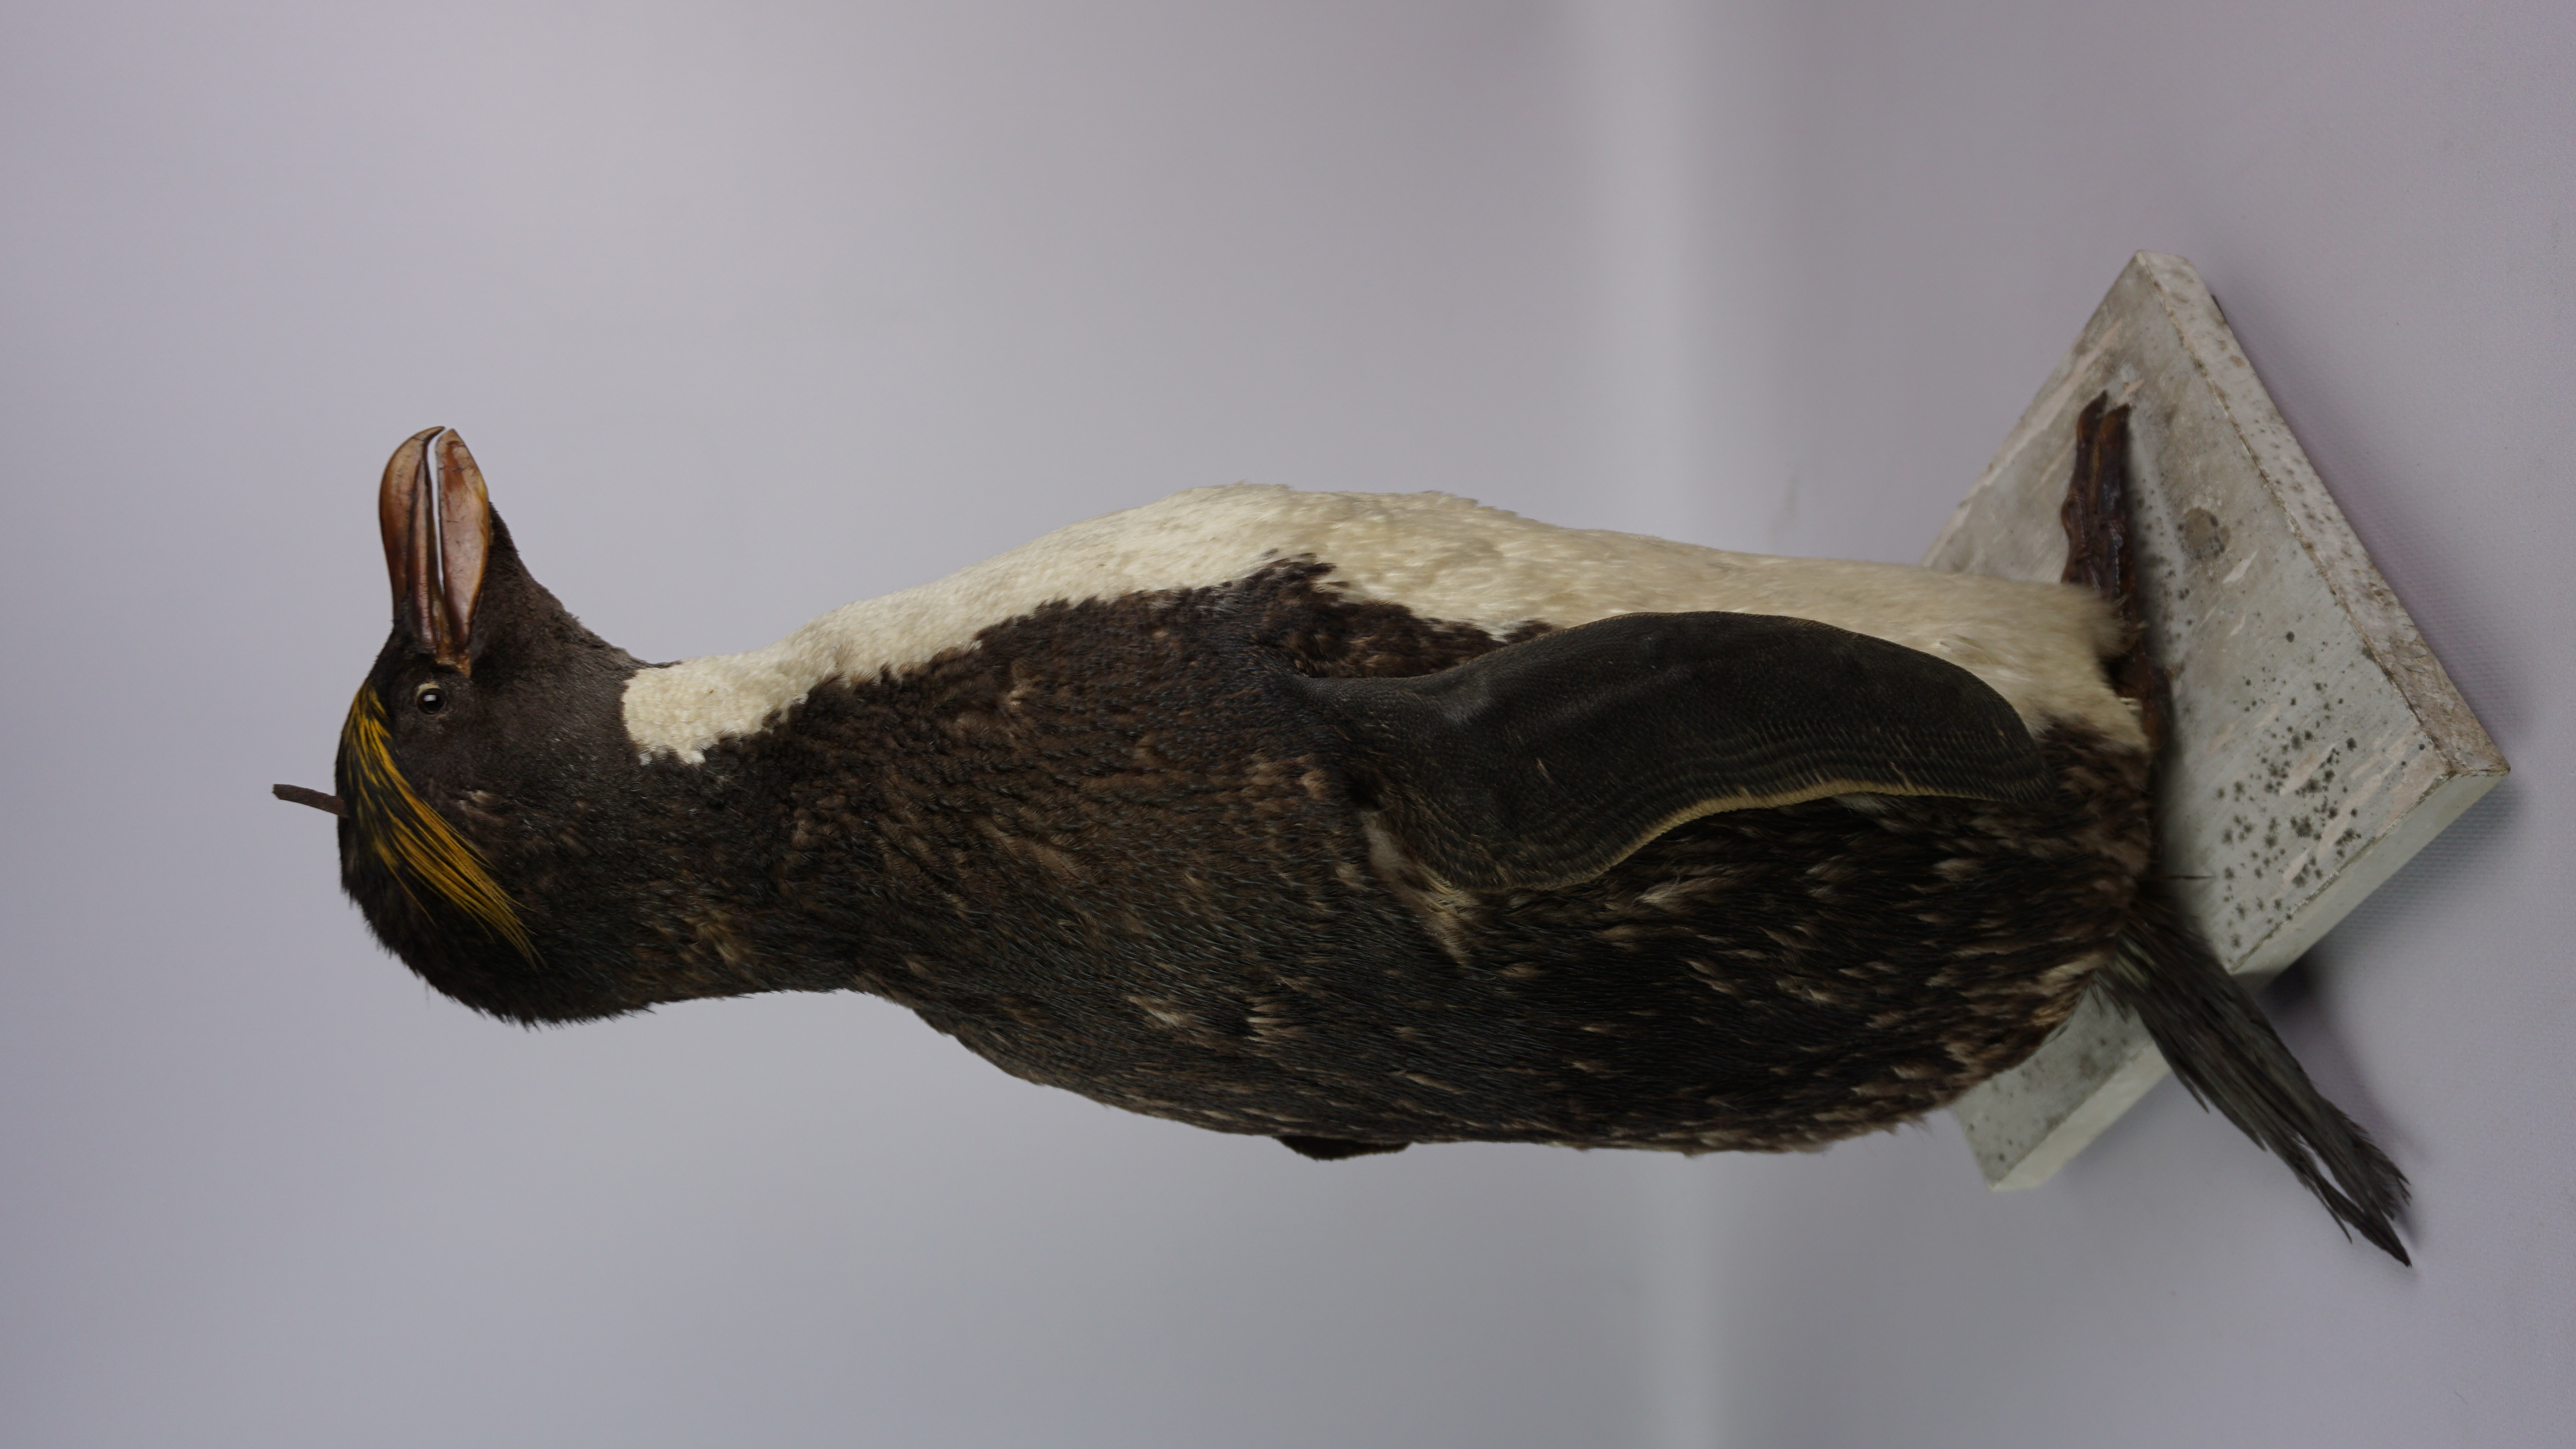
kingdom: Animalia
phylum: Chordata
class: Aves
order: Sphenisciformes
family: Spheniscidae
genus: Eudyptes
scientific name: Eudyptes chrysolophus
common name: Macaroni penguin
